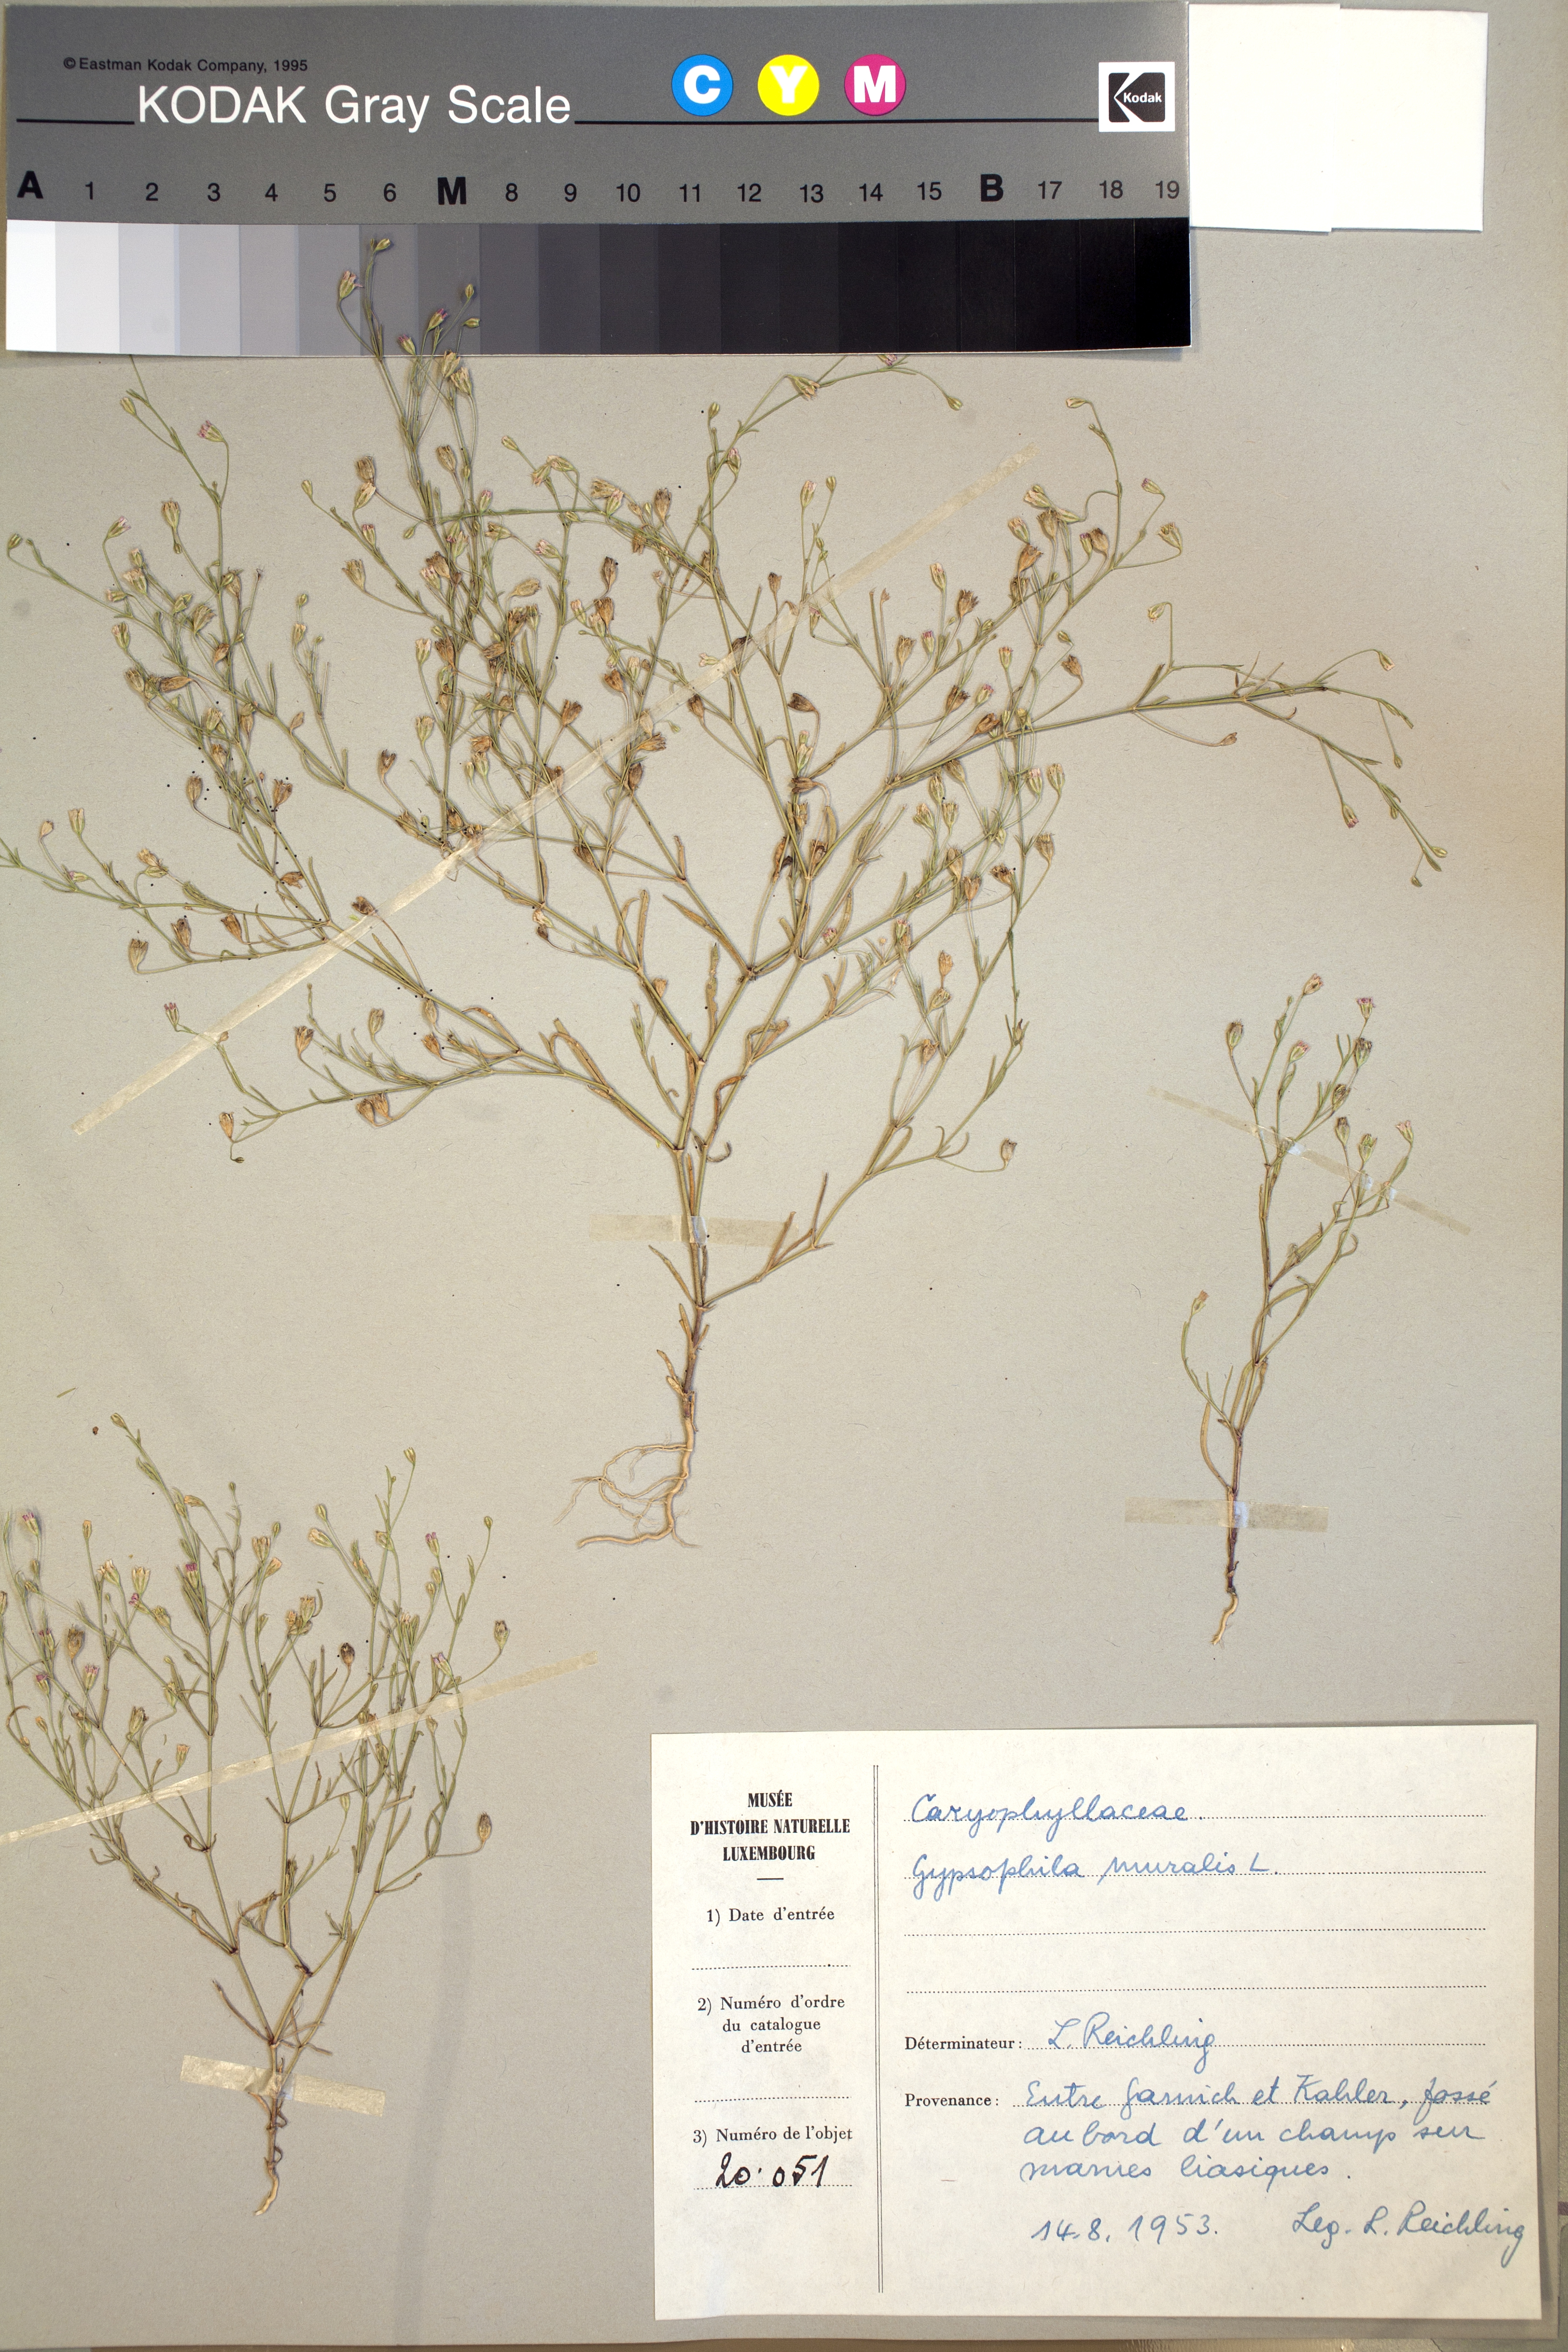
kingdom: Plantae
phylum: Tracheophyta
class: Magnoliopsida
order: Caryophyllales
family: Caryophyllaceae
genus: Psammophiliella
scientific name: Psammophiliella muralis
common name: Cushion baby's-breath
